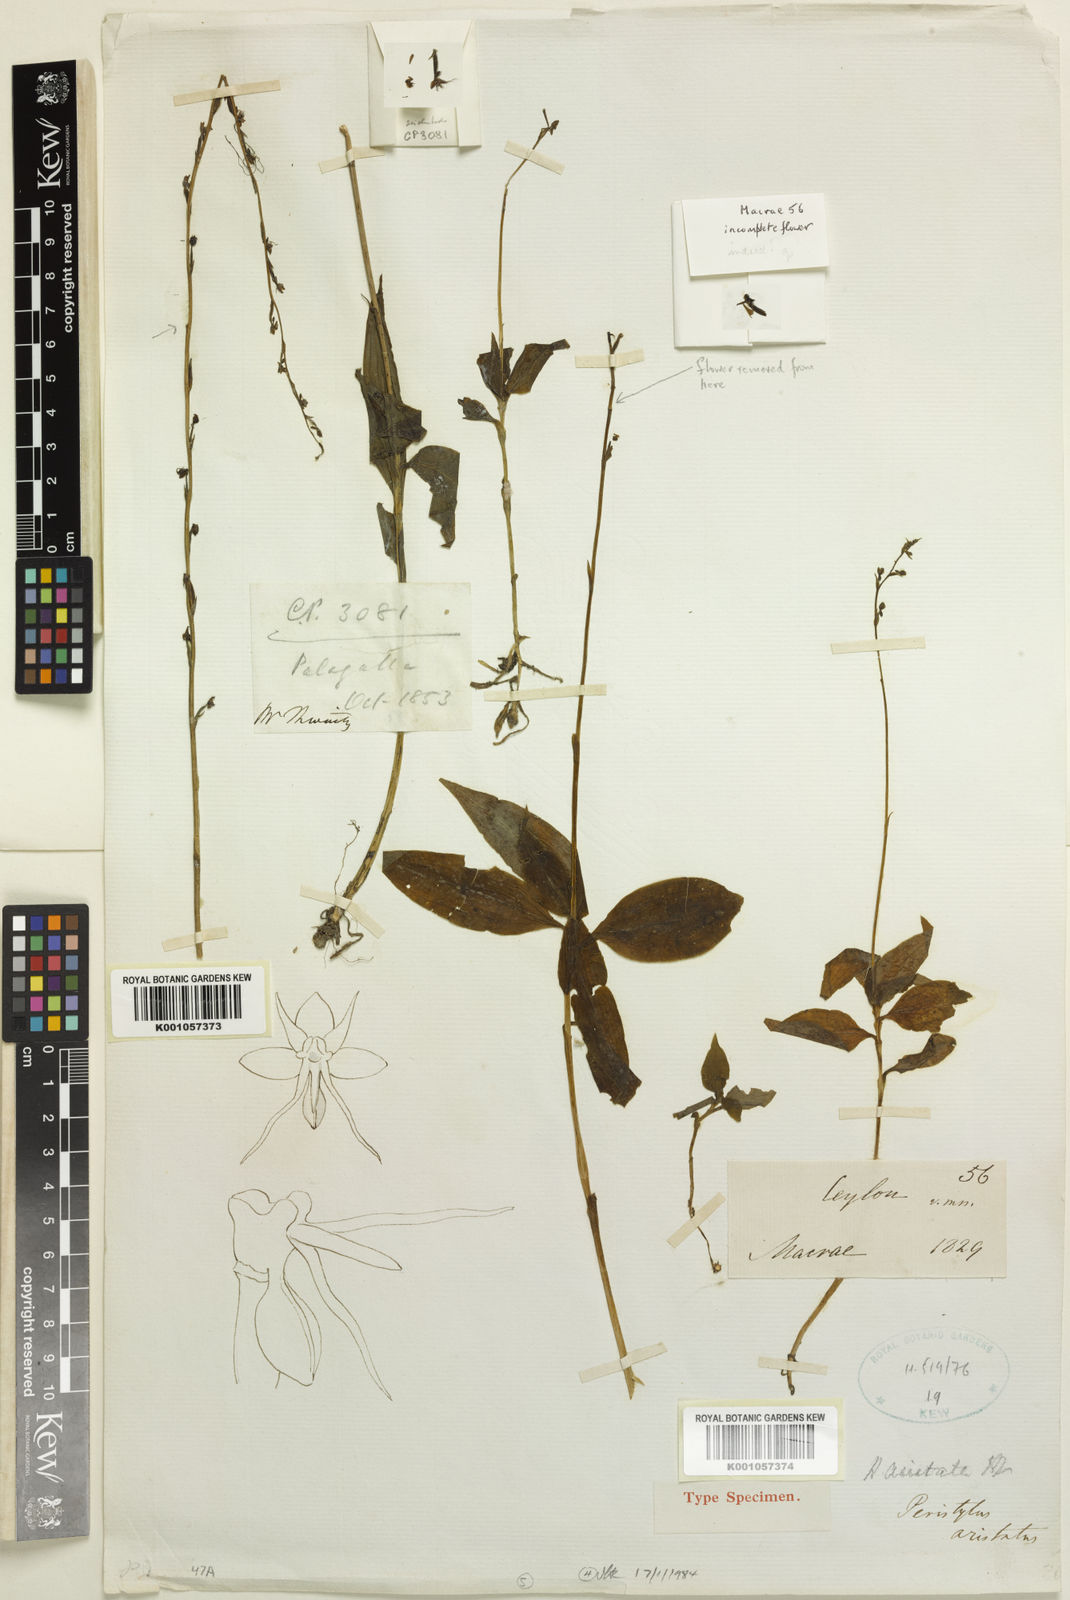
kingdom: Plantae
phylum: Tracheophyta
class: Liliopsida
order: Asparagales
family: Orchidaceae
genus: Peristylus
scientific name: Peristylus aristatus
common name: The spiked peristylus
